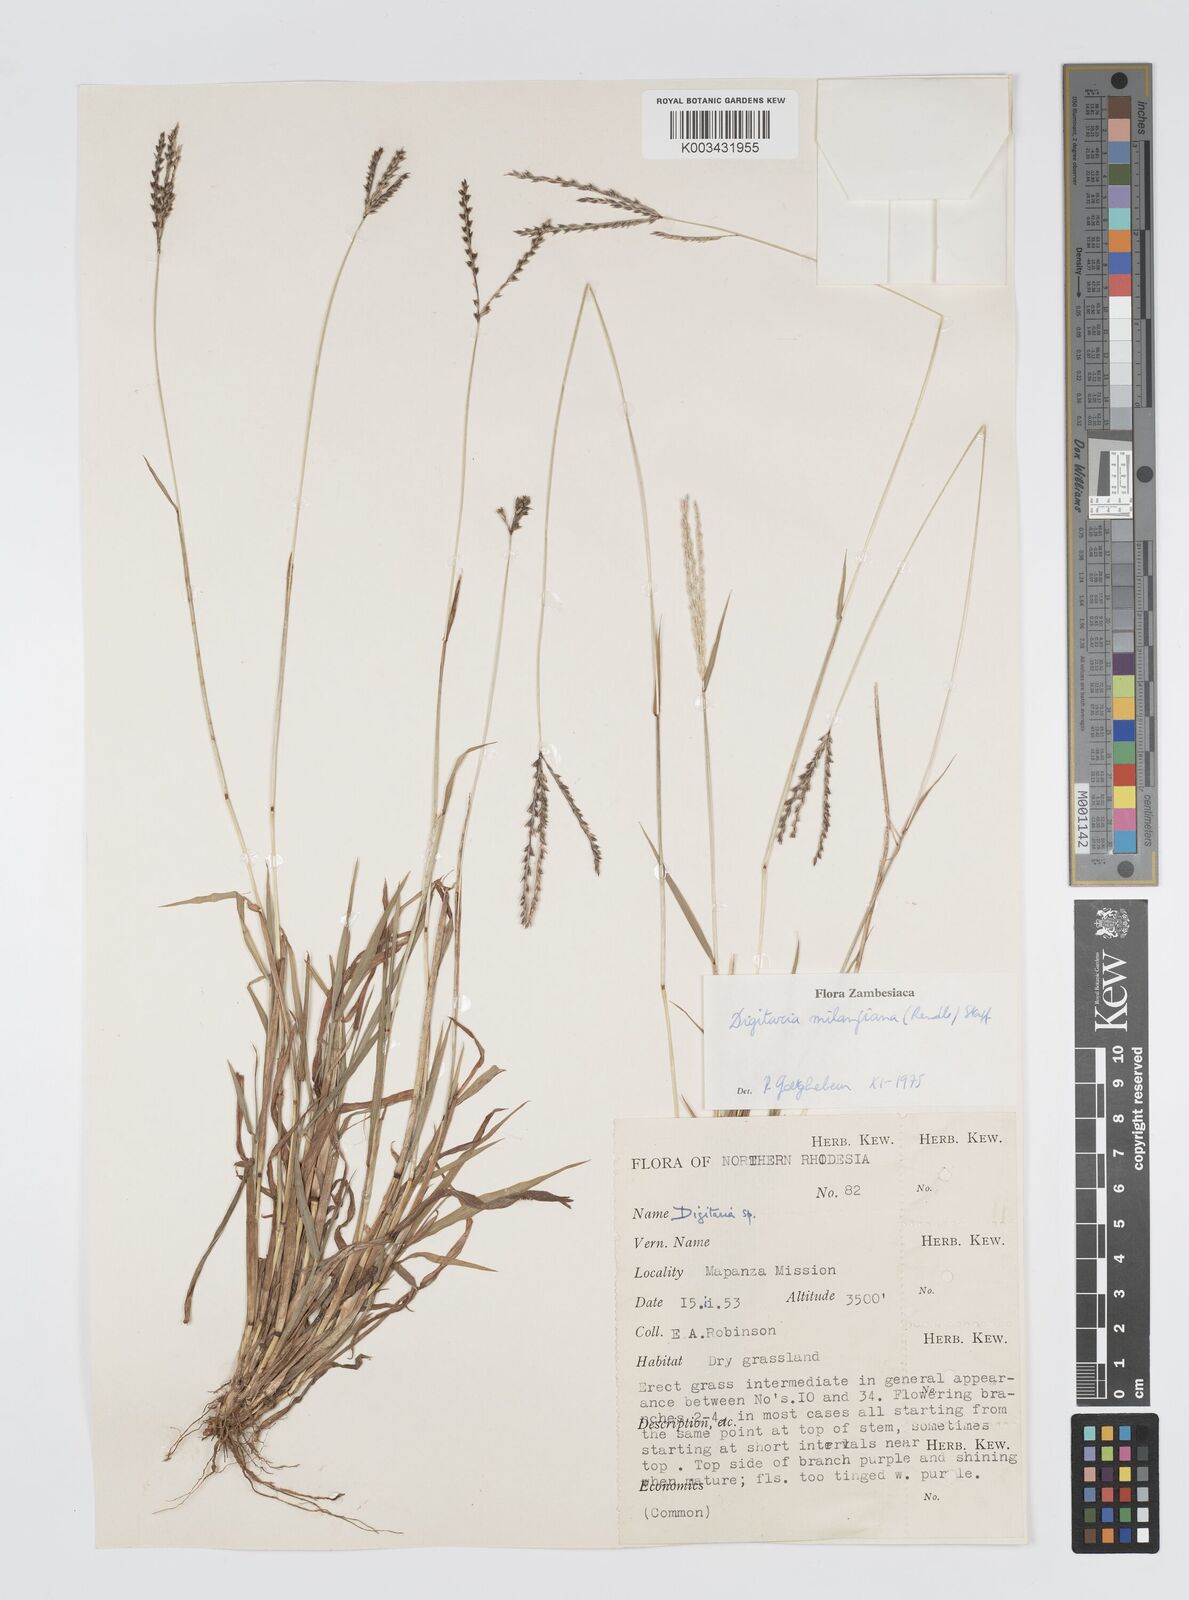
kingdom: Plantae
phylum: Tracheophyta
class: Liliopsida
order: Poales
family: Poaceae
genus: Digitaria
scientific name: Digitaria milanjiana
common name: Madagascar crabgrass
